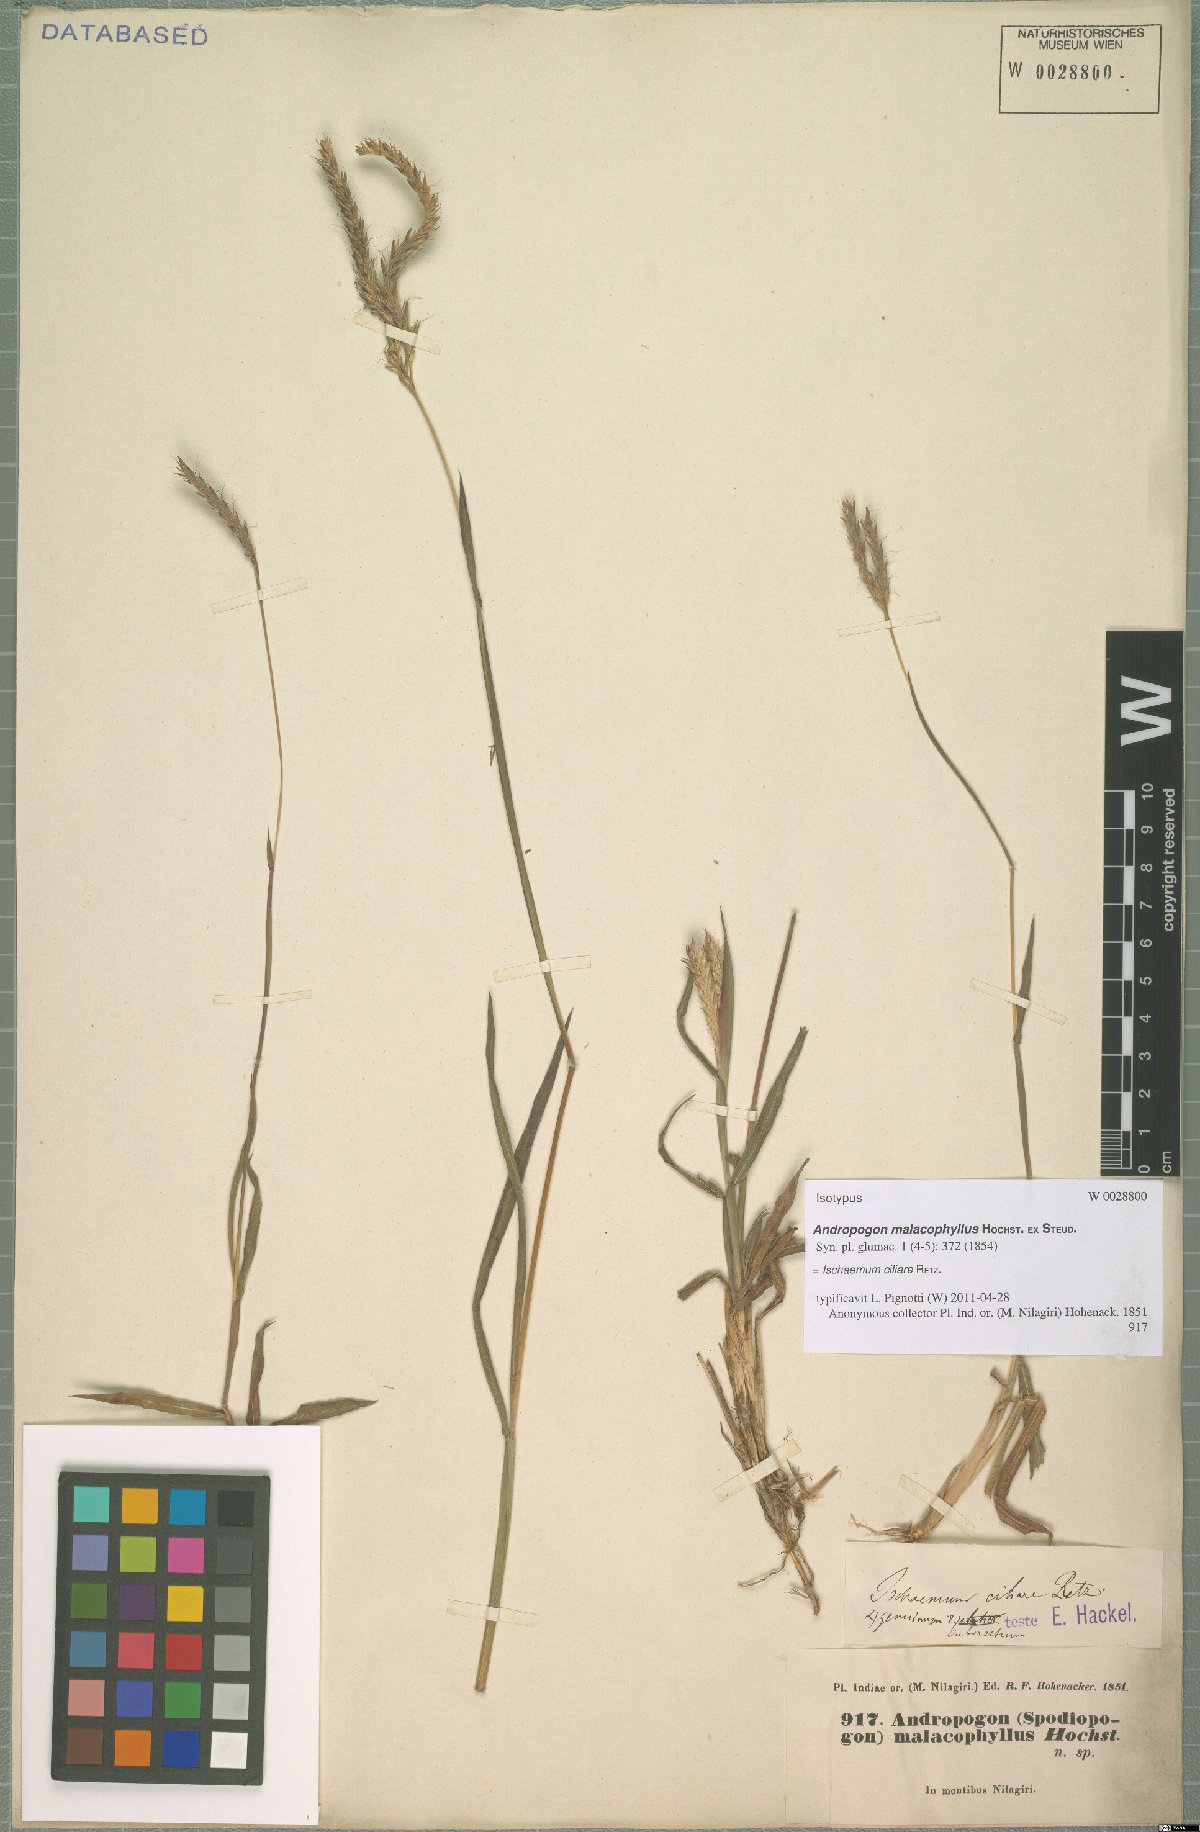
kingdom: Plantae
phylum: Tracheophyta
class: Liliopsida
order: Poales
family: Poaceae
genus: Ischaemum
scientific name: Ischaemum ciliare
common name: Grass
